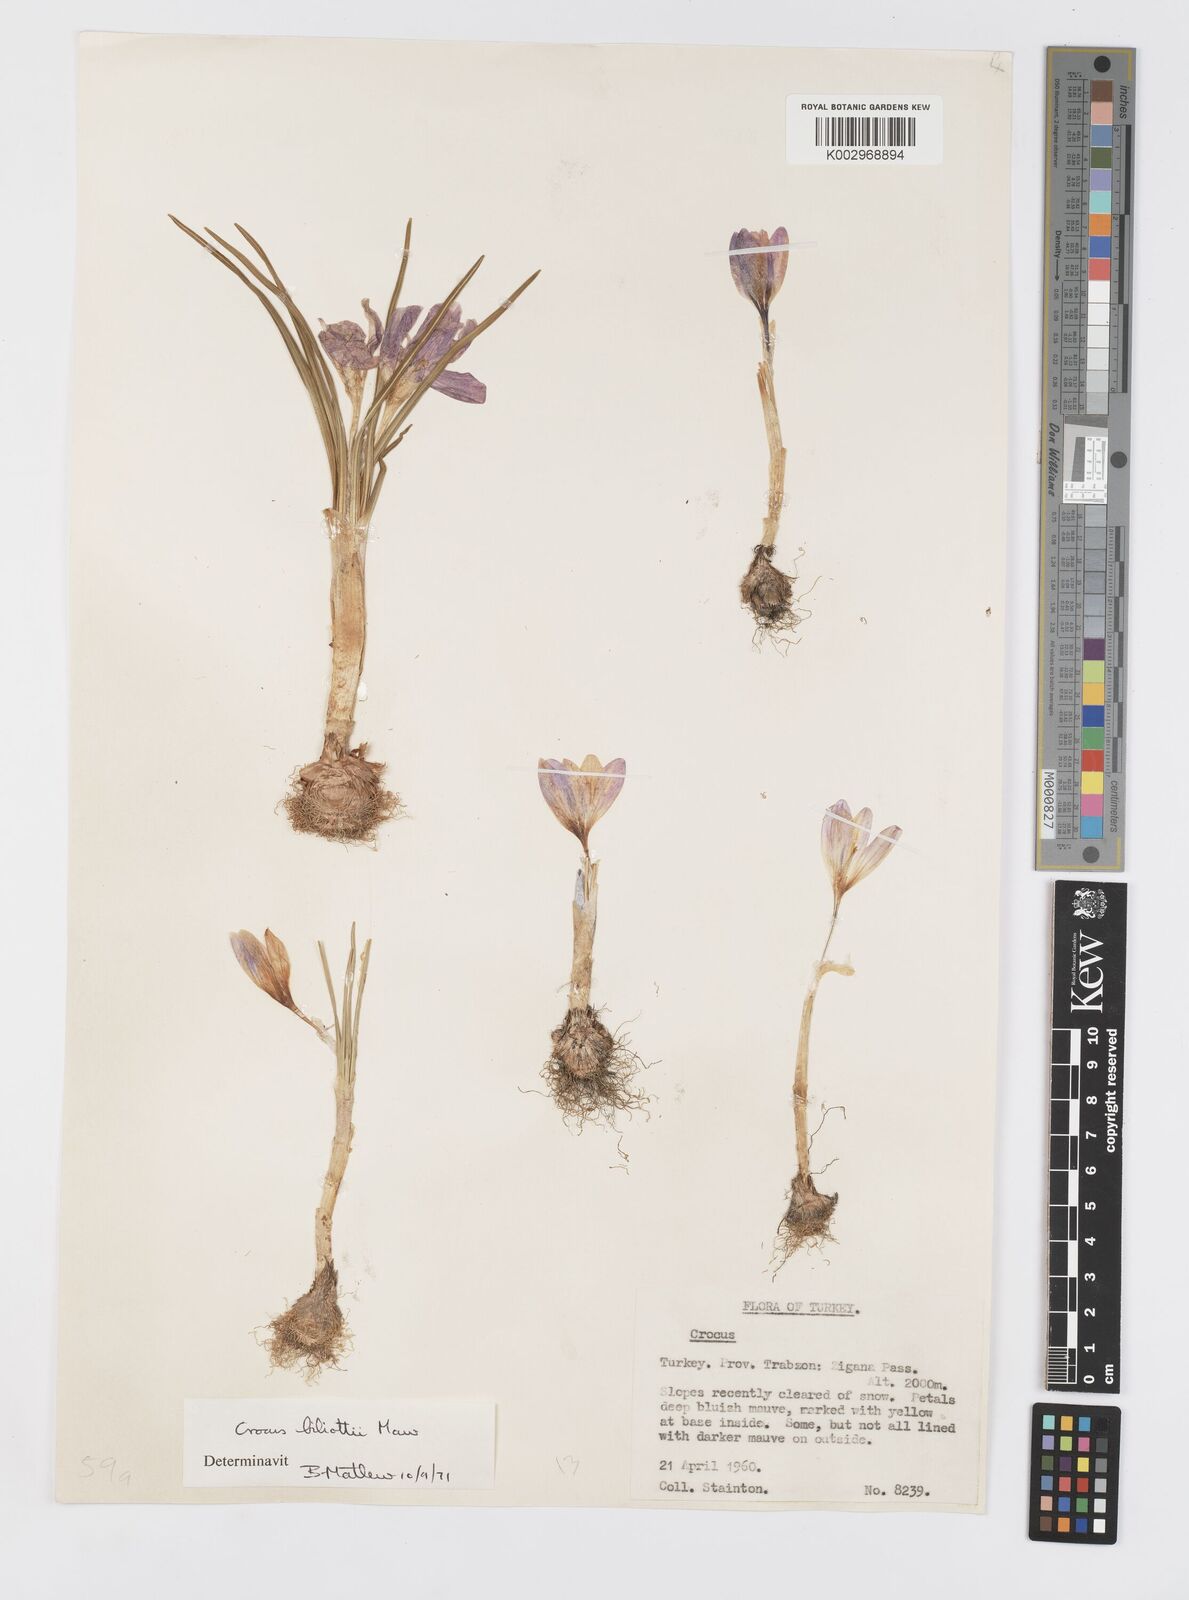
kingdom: Plantae
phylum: Tracheophyta
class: Liliopsida
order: Asparagales
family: Iridaceae
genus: Crocus
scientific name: Crocus aerius
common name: Aerial crocus
